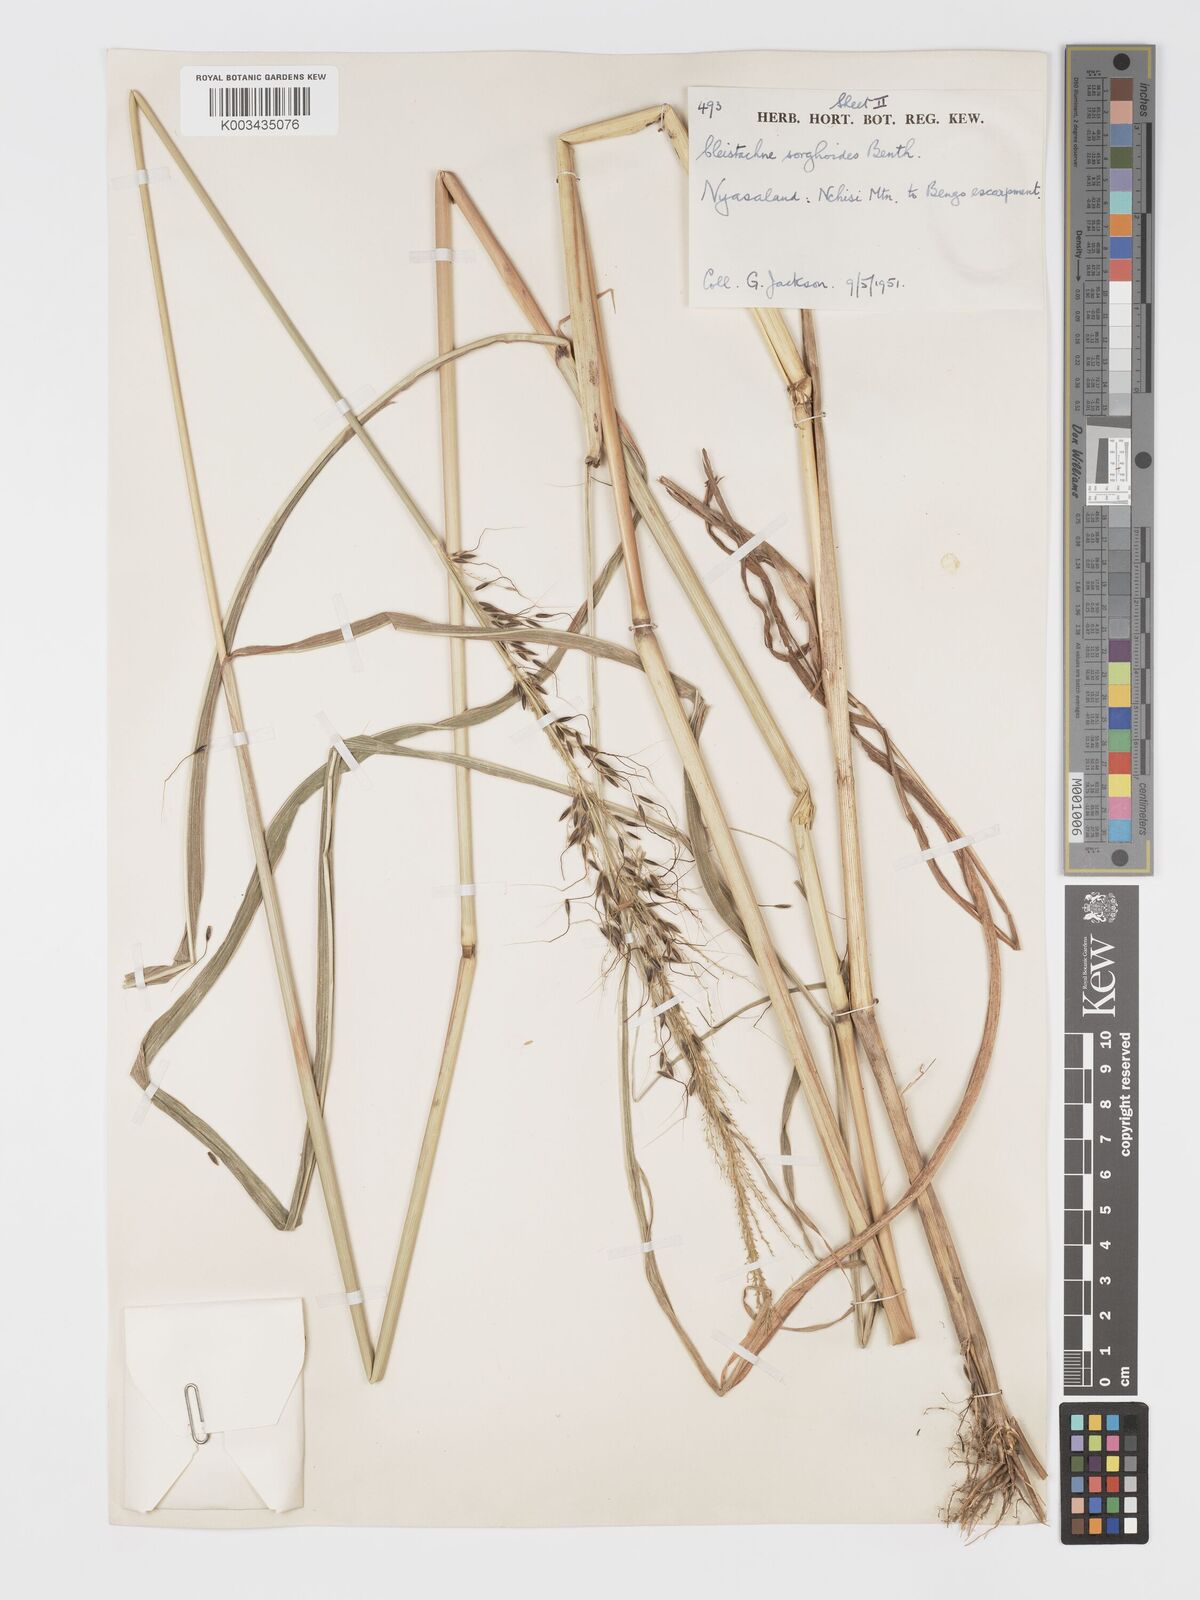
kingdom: Plantae
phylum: Tracheophyta
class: Liliopsida
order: Poales
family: Poaceae
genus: Cleistachne
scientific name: Cleistachne sorghoides
